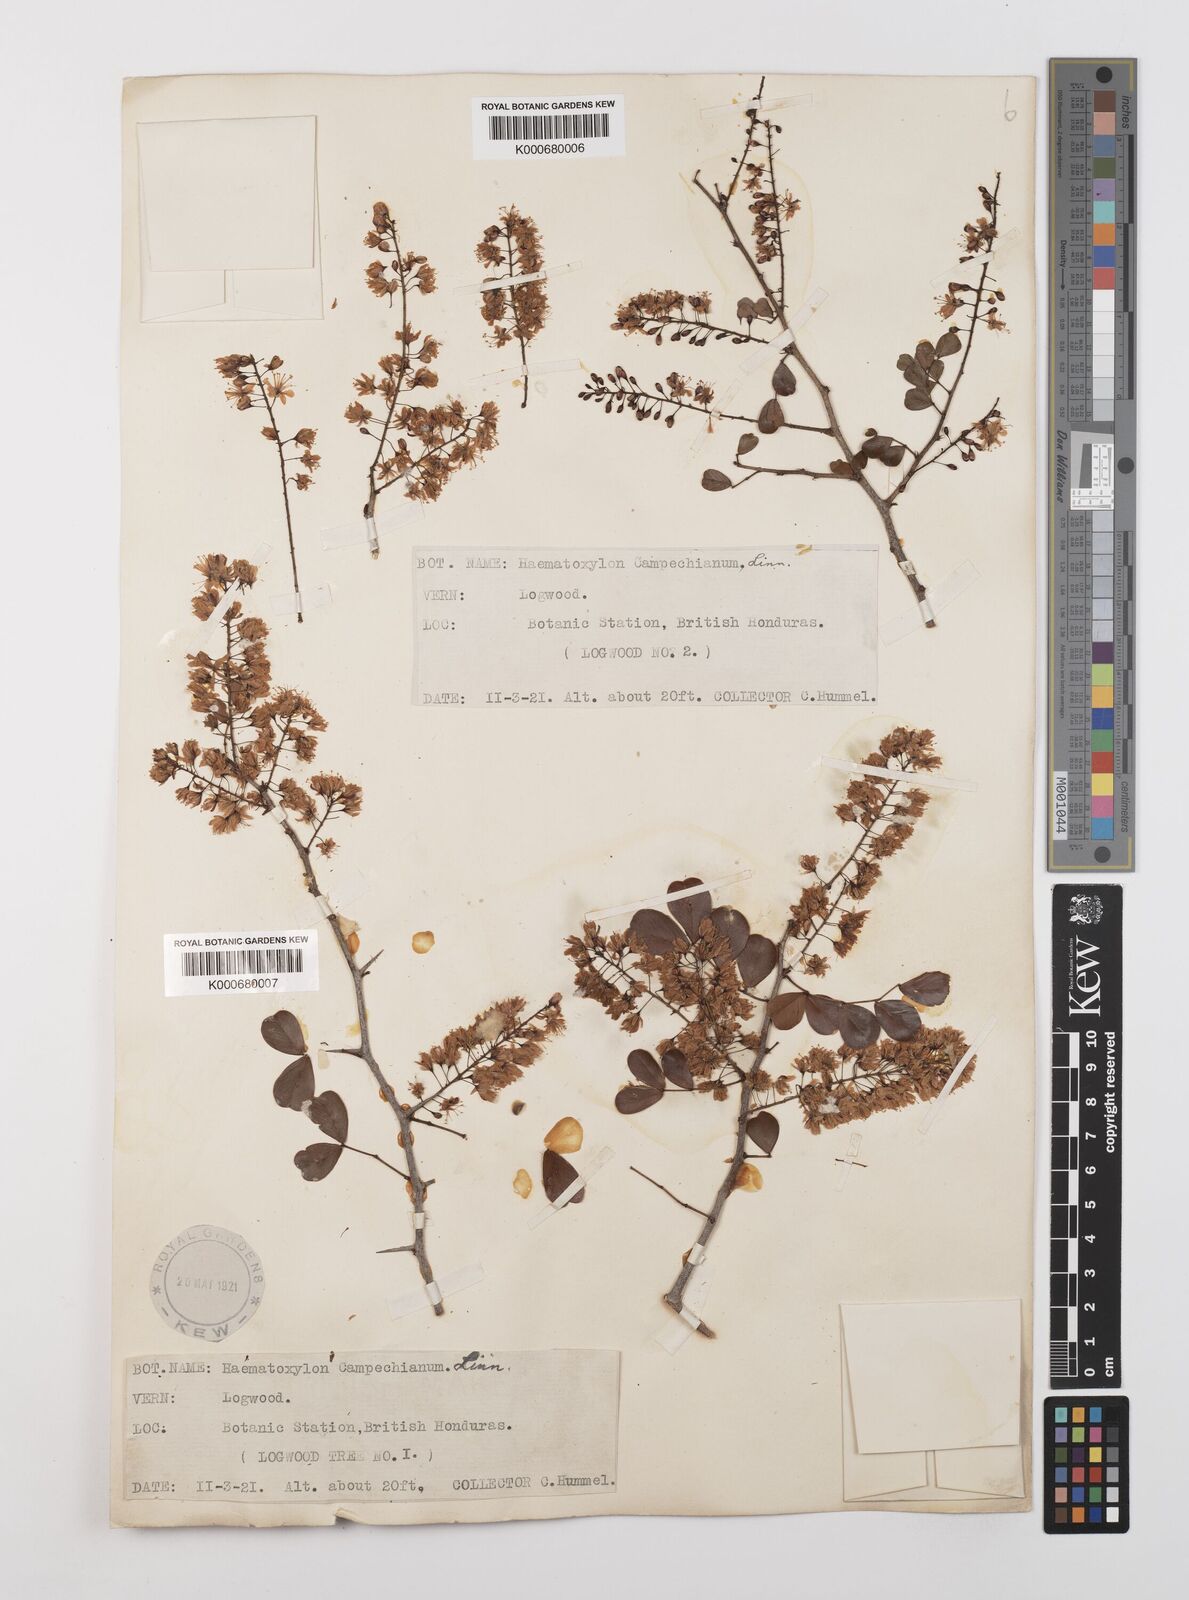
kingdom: Plantae
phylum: Tracheophyta
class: Magnoliopsida
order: Fabales
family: Fabaceae
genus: Haematoxylum
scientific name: Haematoxylum
